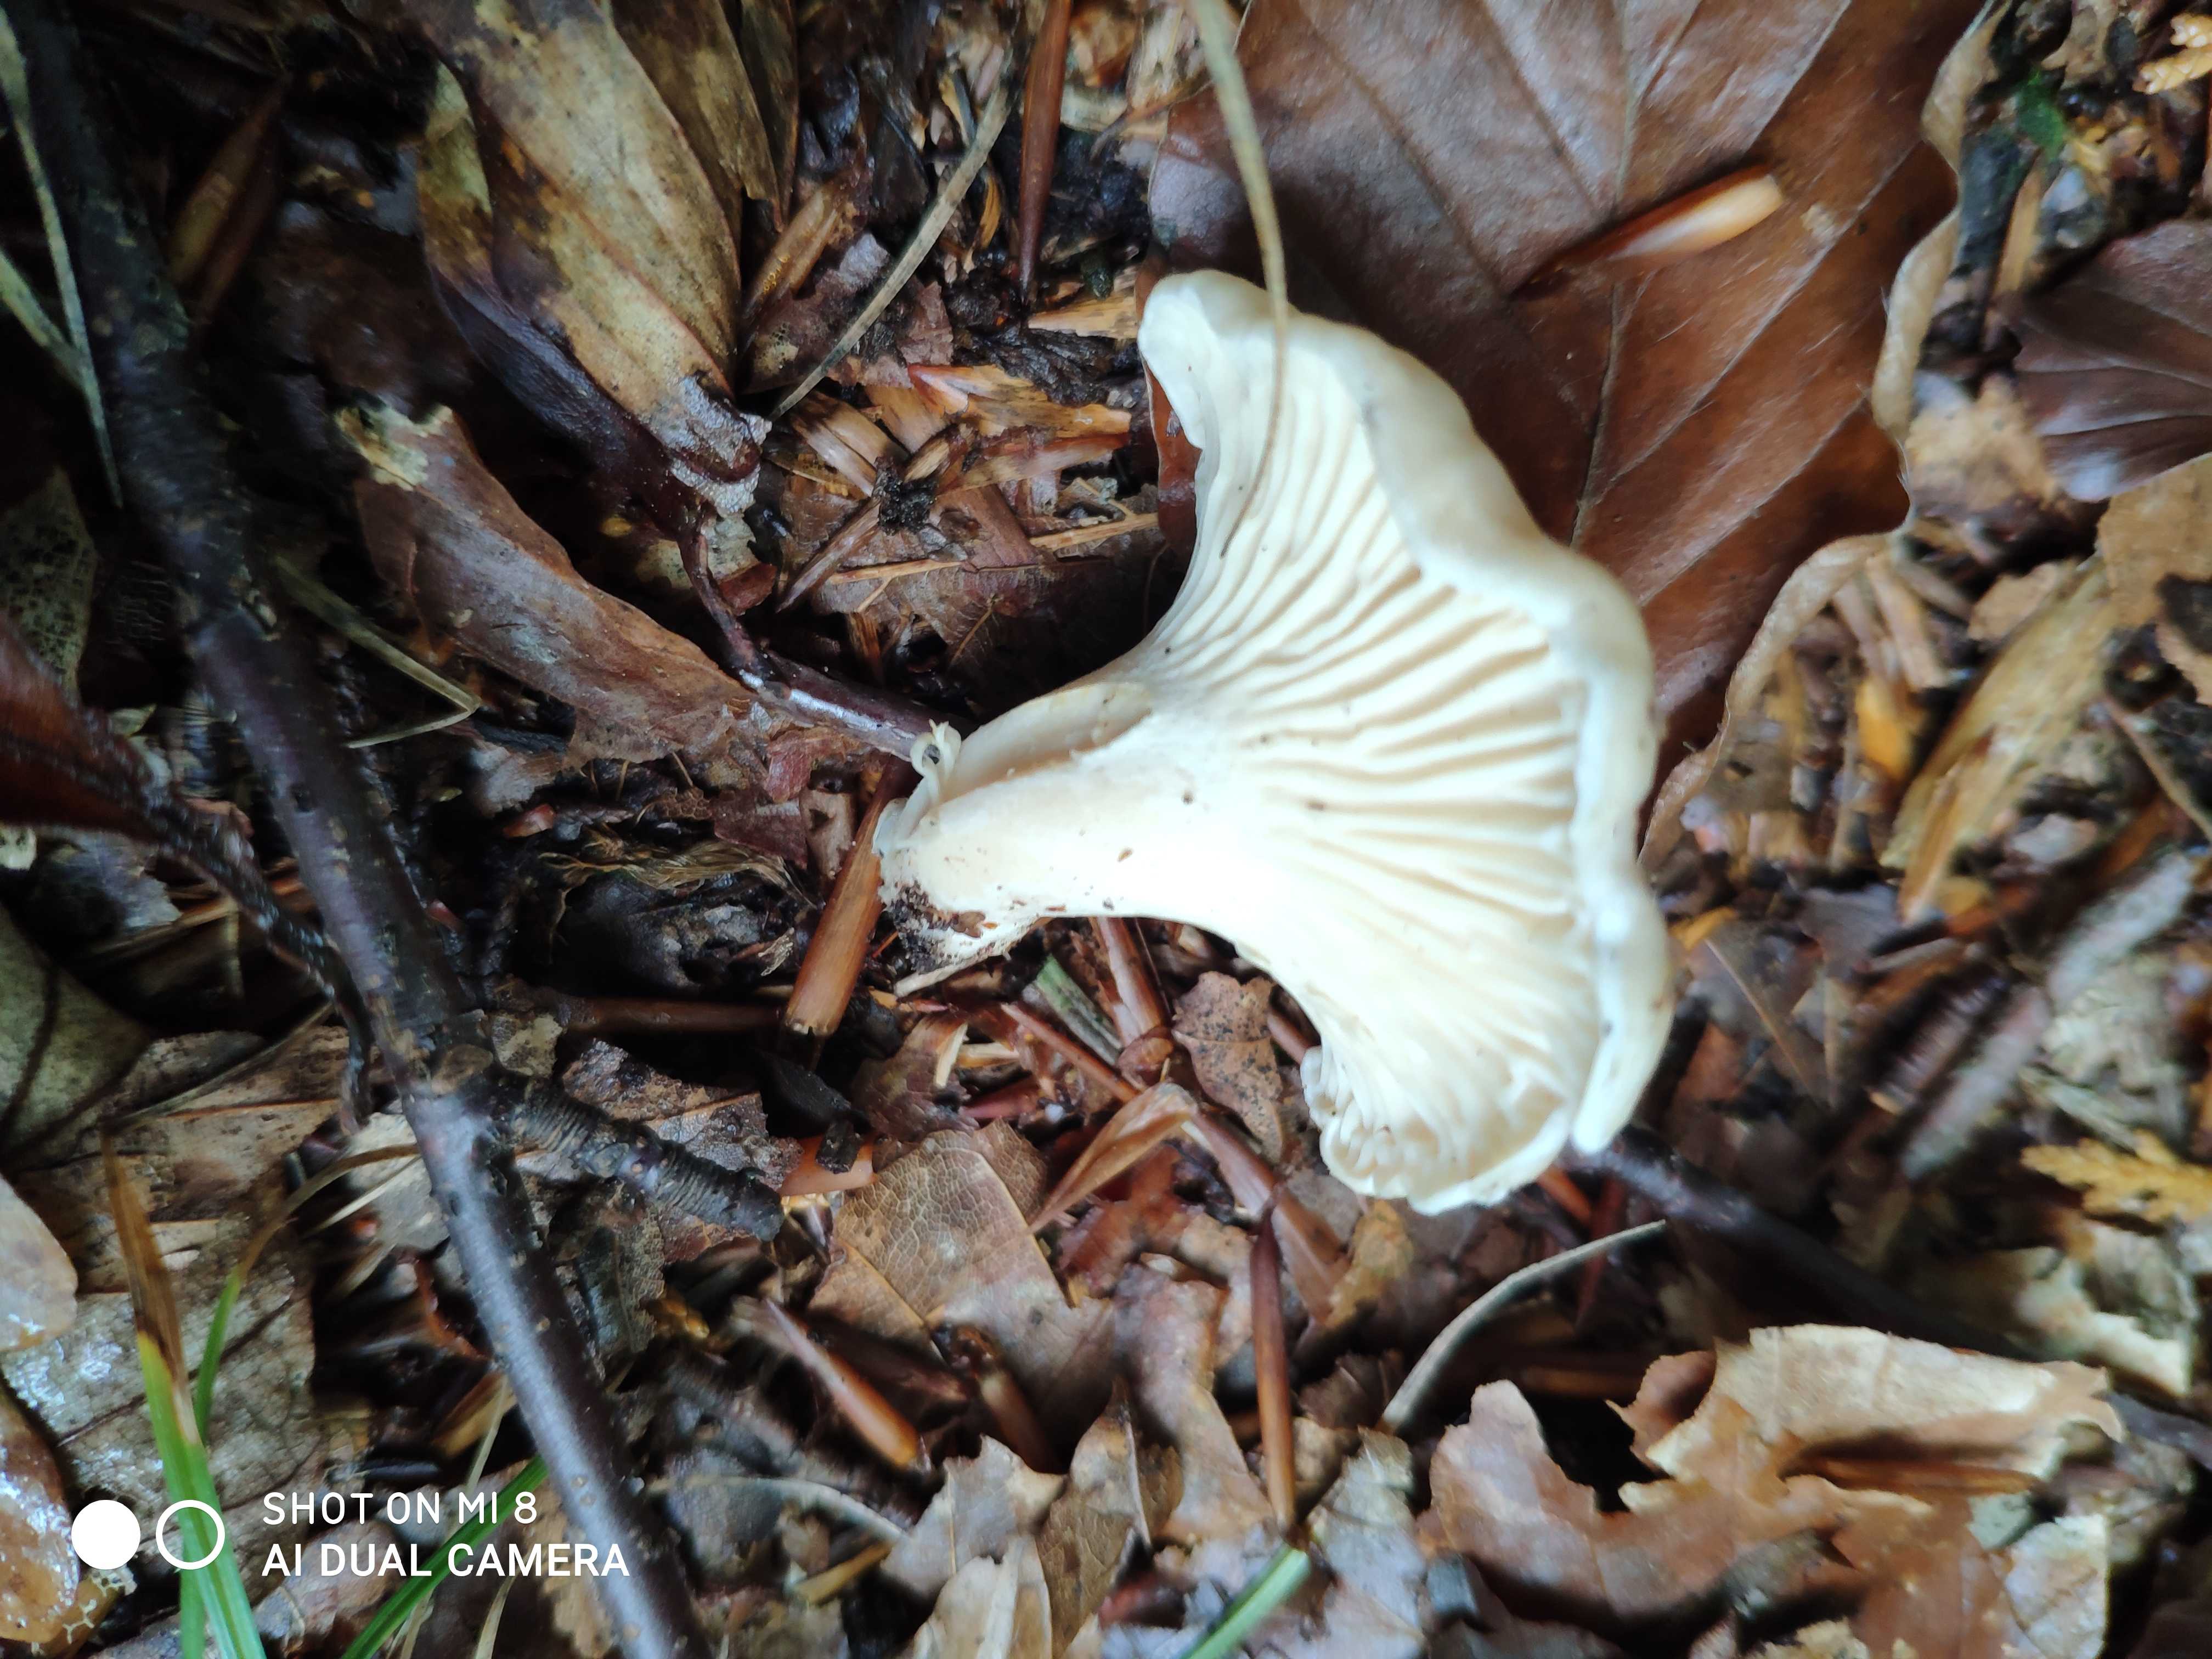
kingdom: Fungi
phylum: Basidiomycota
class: Agaricomycetes
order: Cantharellales
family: Hydnaceae
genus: Cantharellus
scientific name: Cantharellus
